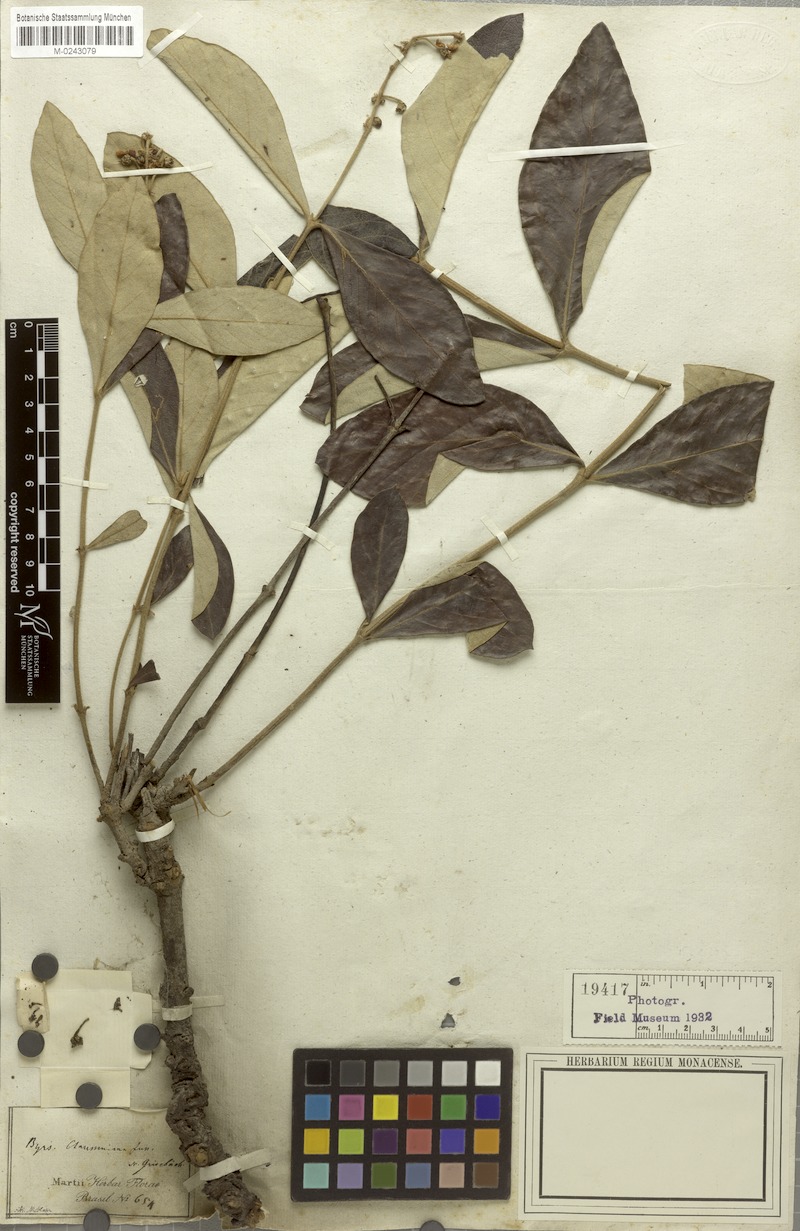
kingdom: Plantae
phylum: Tracheophyta
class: Magnoliopsida
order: Malpighiales
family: Malpighiaceae
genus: Byrsonima
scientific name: Byrsonima clausseniana
